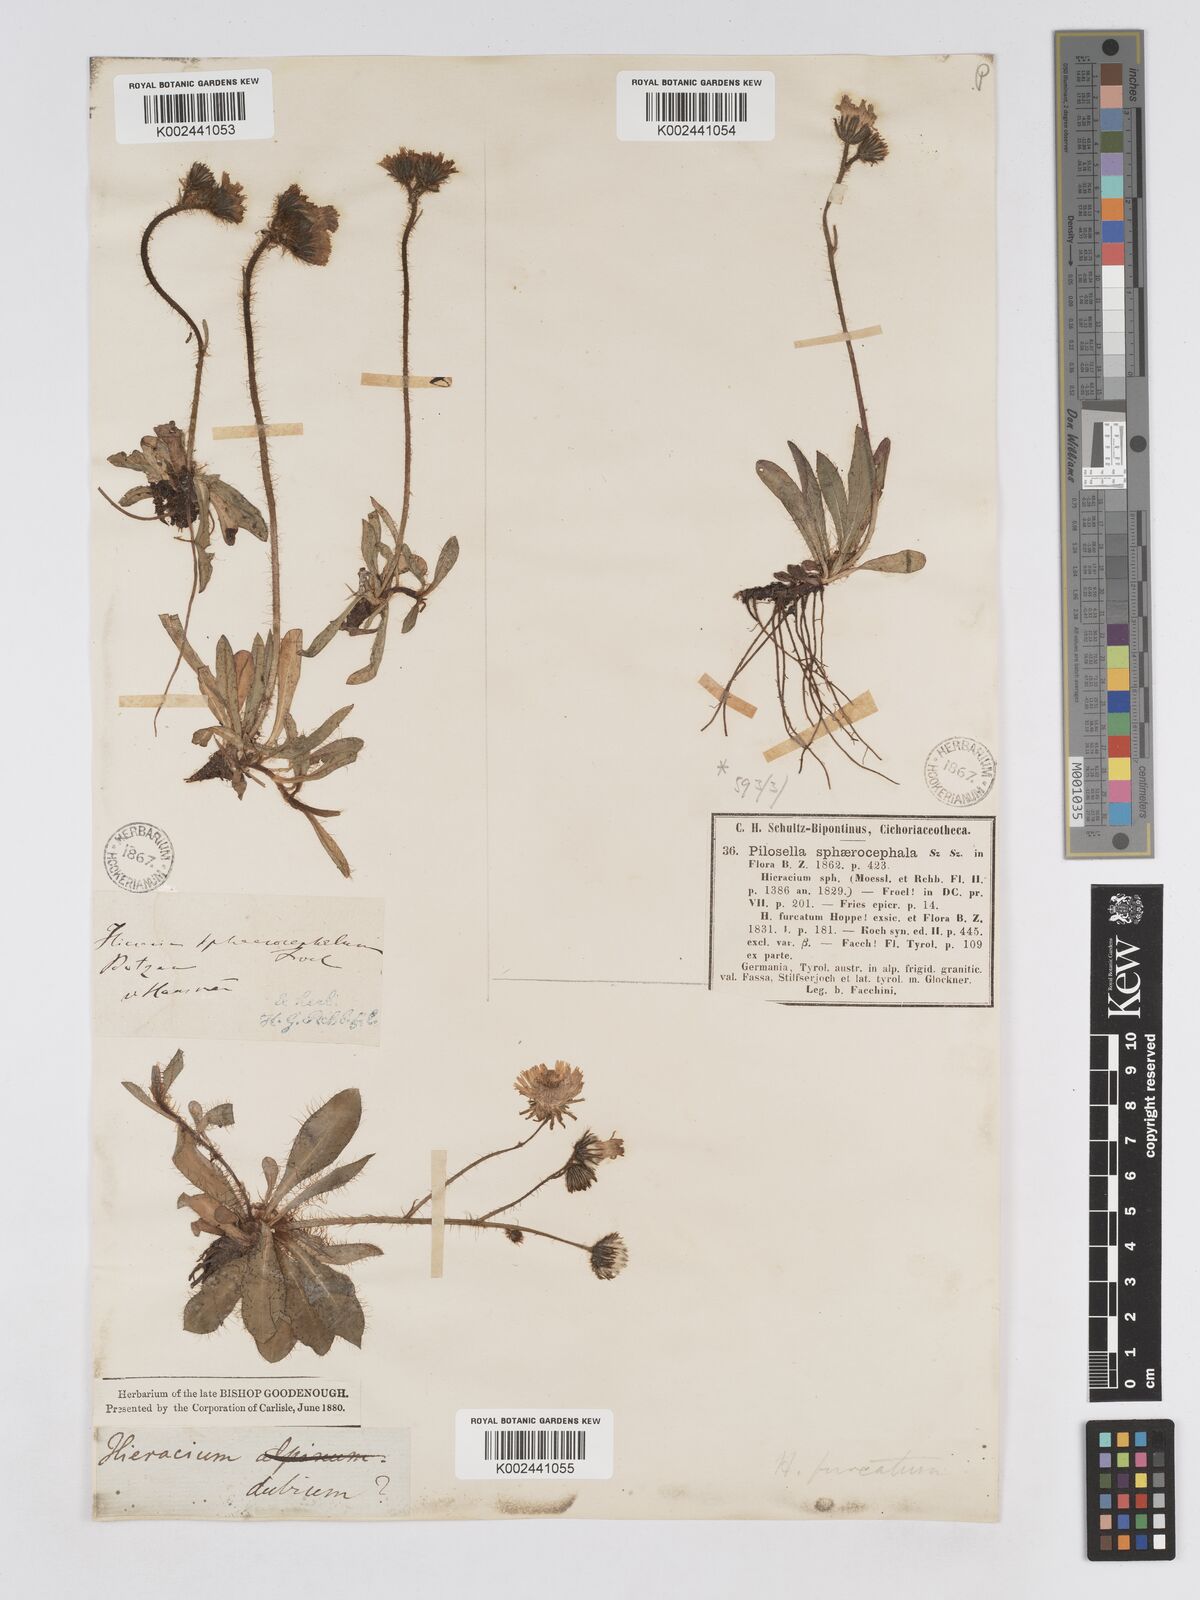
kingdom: Plantae
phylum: Tracheophyta
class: Magnoliopsida
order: Asterales
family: Asteraceae
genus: Pilosella
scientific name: Pilosella sphaerocephala
